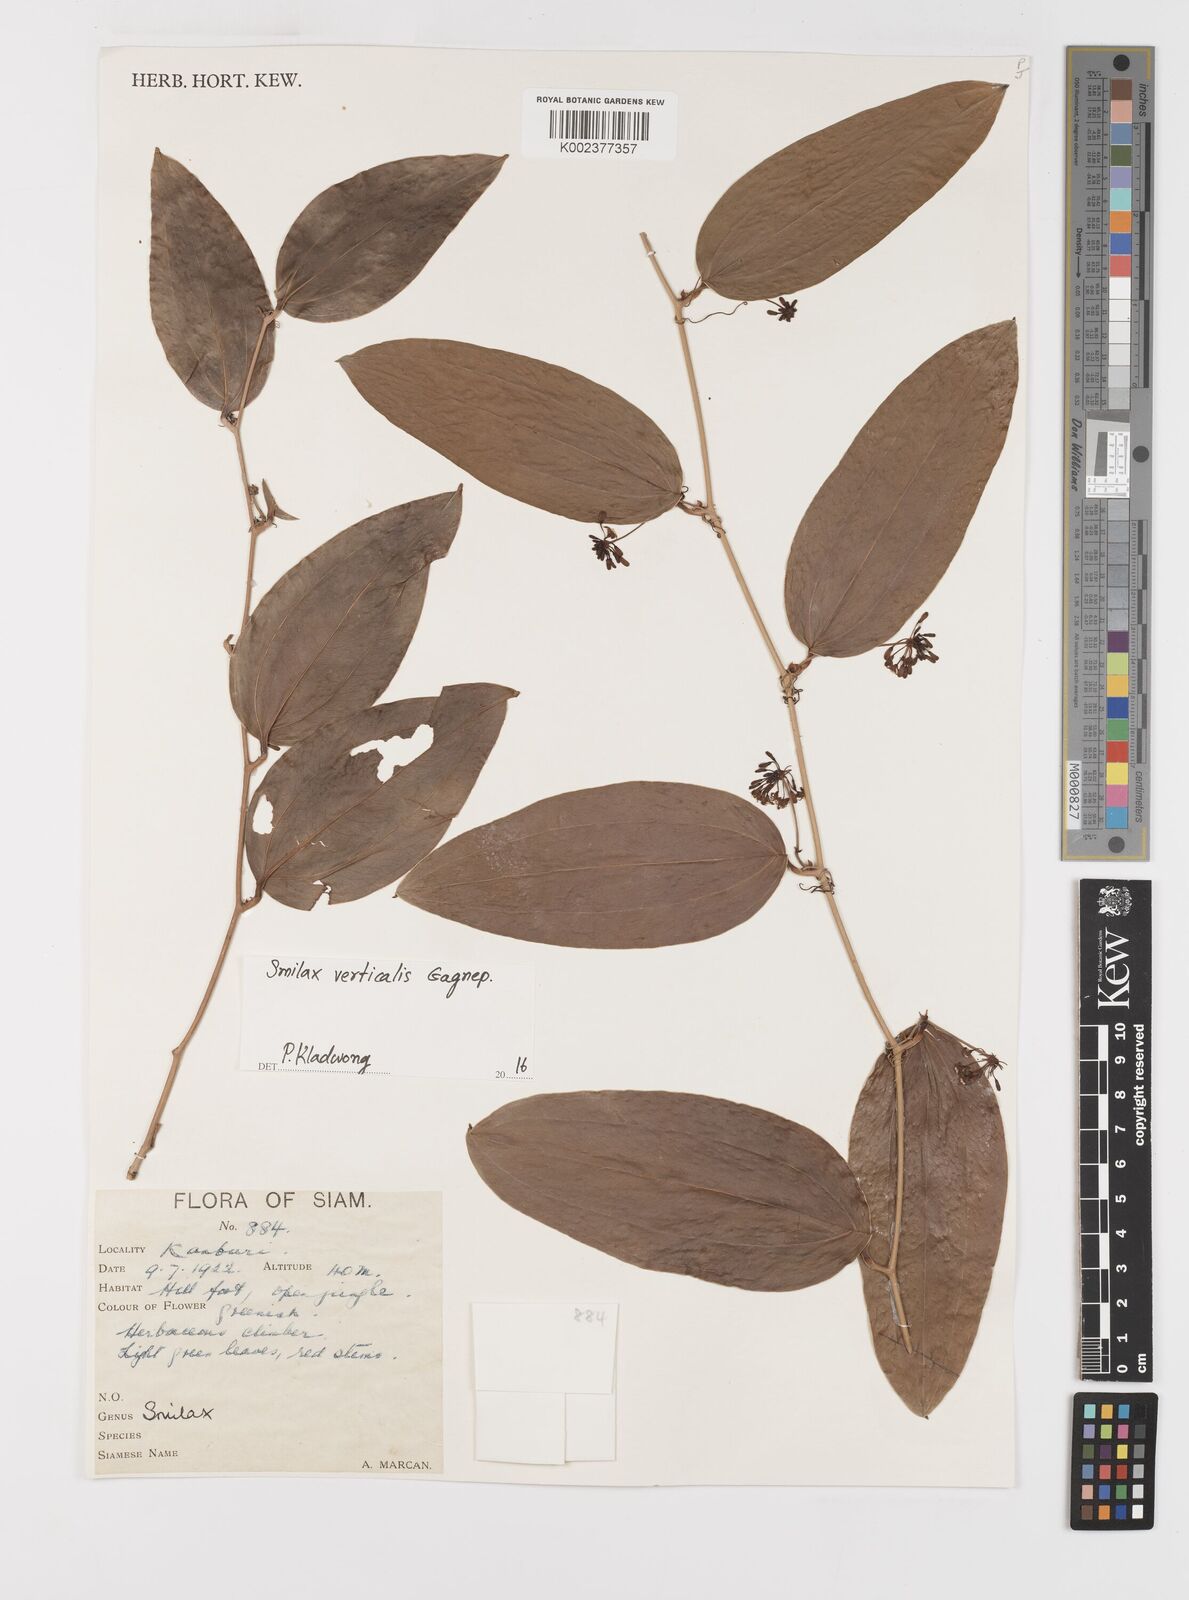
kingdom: Plantae
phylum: Tracheophyta
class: Liliopsida
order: Liliales
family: Smilacaceae
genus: Smilax
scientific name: Smilax verticalis
